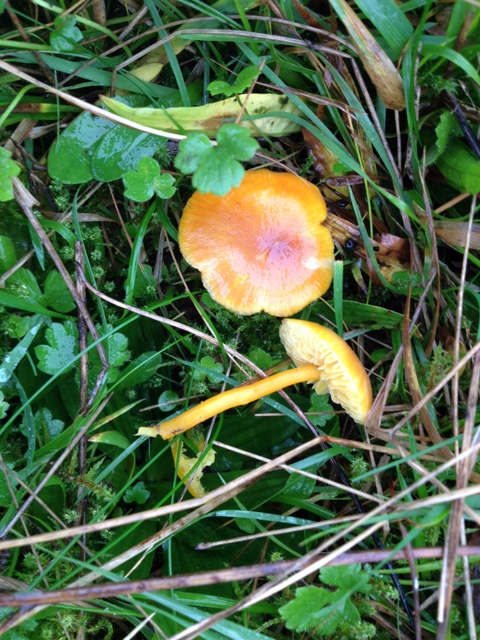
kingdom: Fungi
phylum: Basidiomycota
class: Agaricomycetes
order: Agaricales
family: Hygrophoraceae
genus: Hygrocybe
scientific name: Hygrocybe miniata
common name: mønje-vokshat
